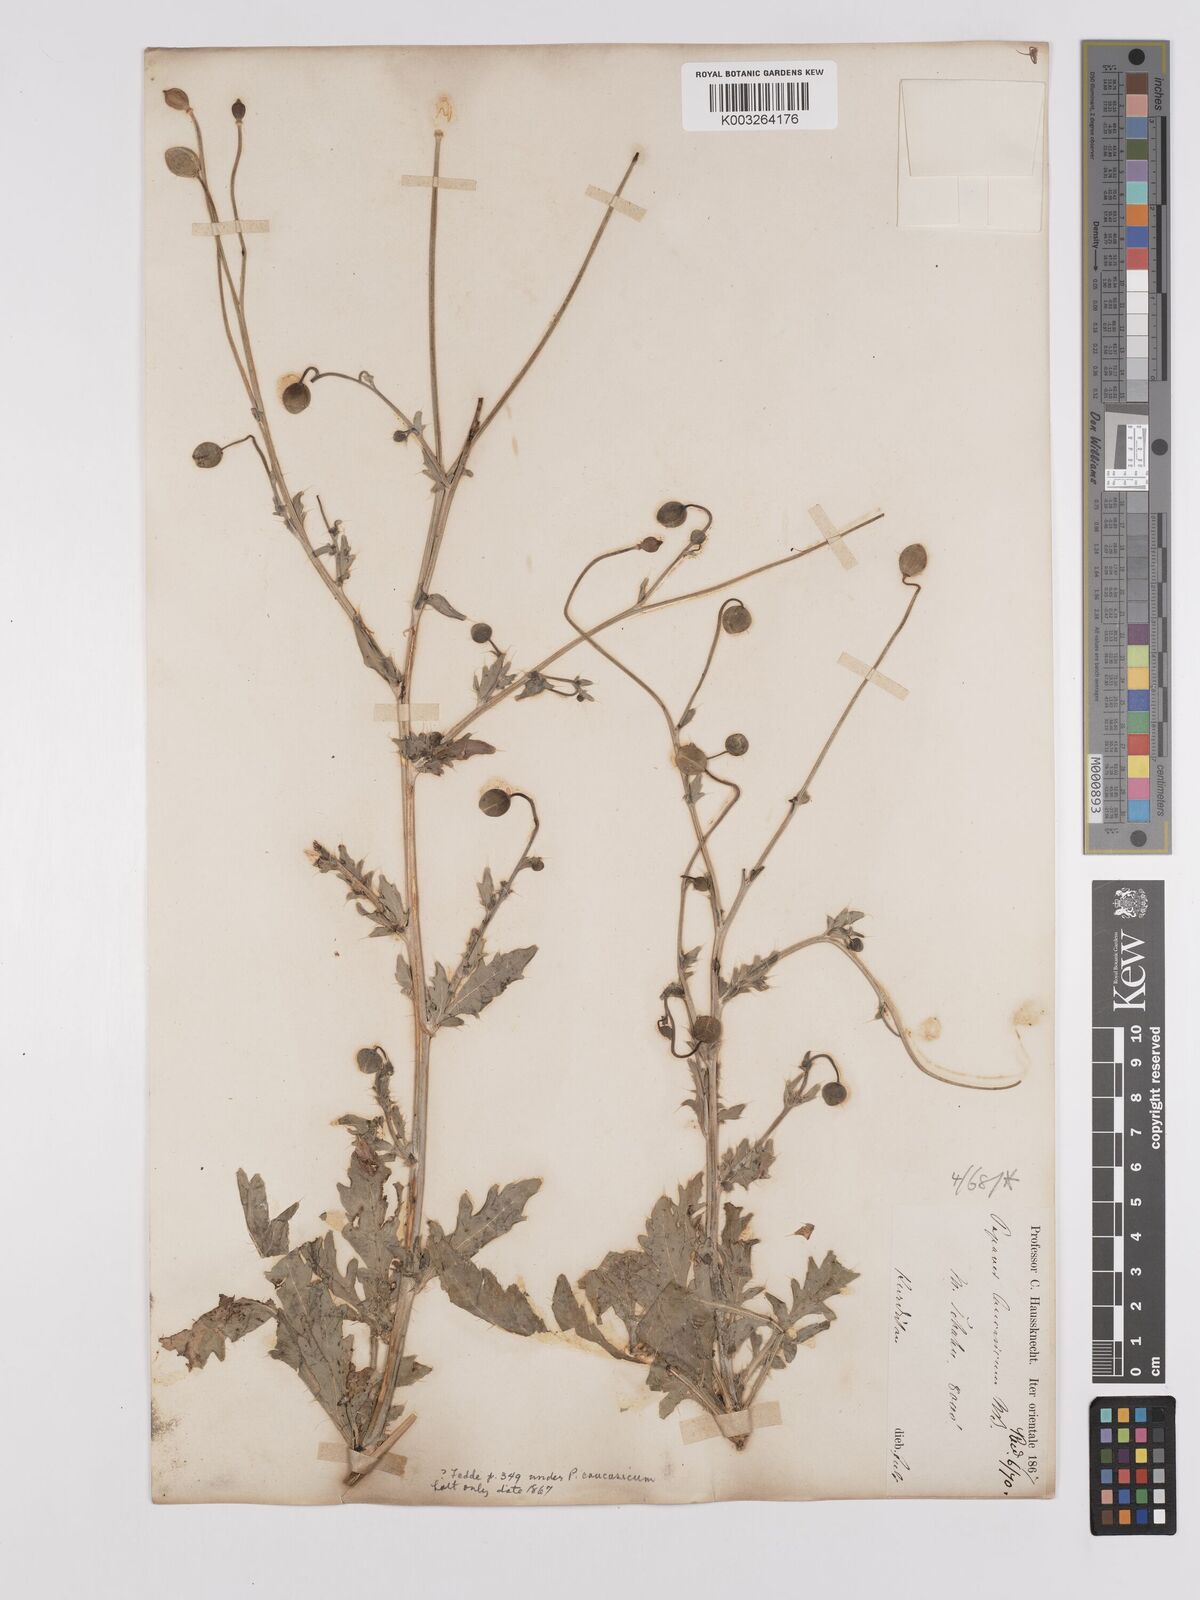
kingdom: Plantae
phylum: Tracheophyta
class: Magnoliopsida
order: Ranunculales
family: Papaveraceae
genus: Papaver
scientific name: Papaver armeniacum
